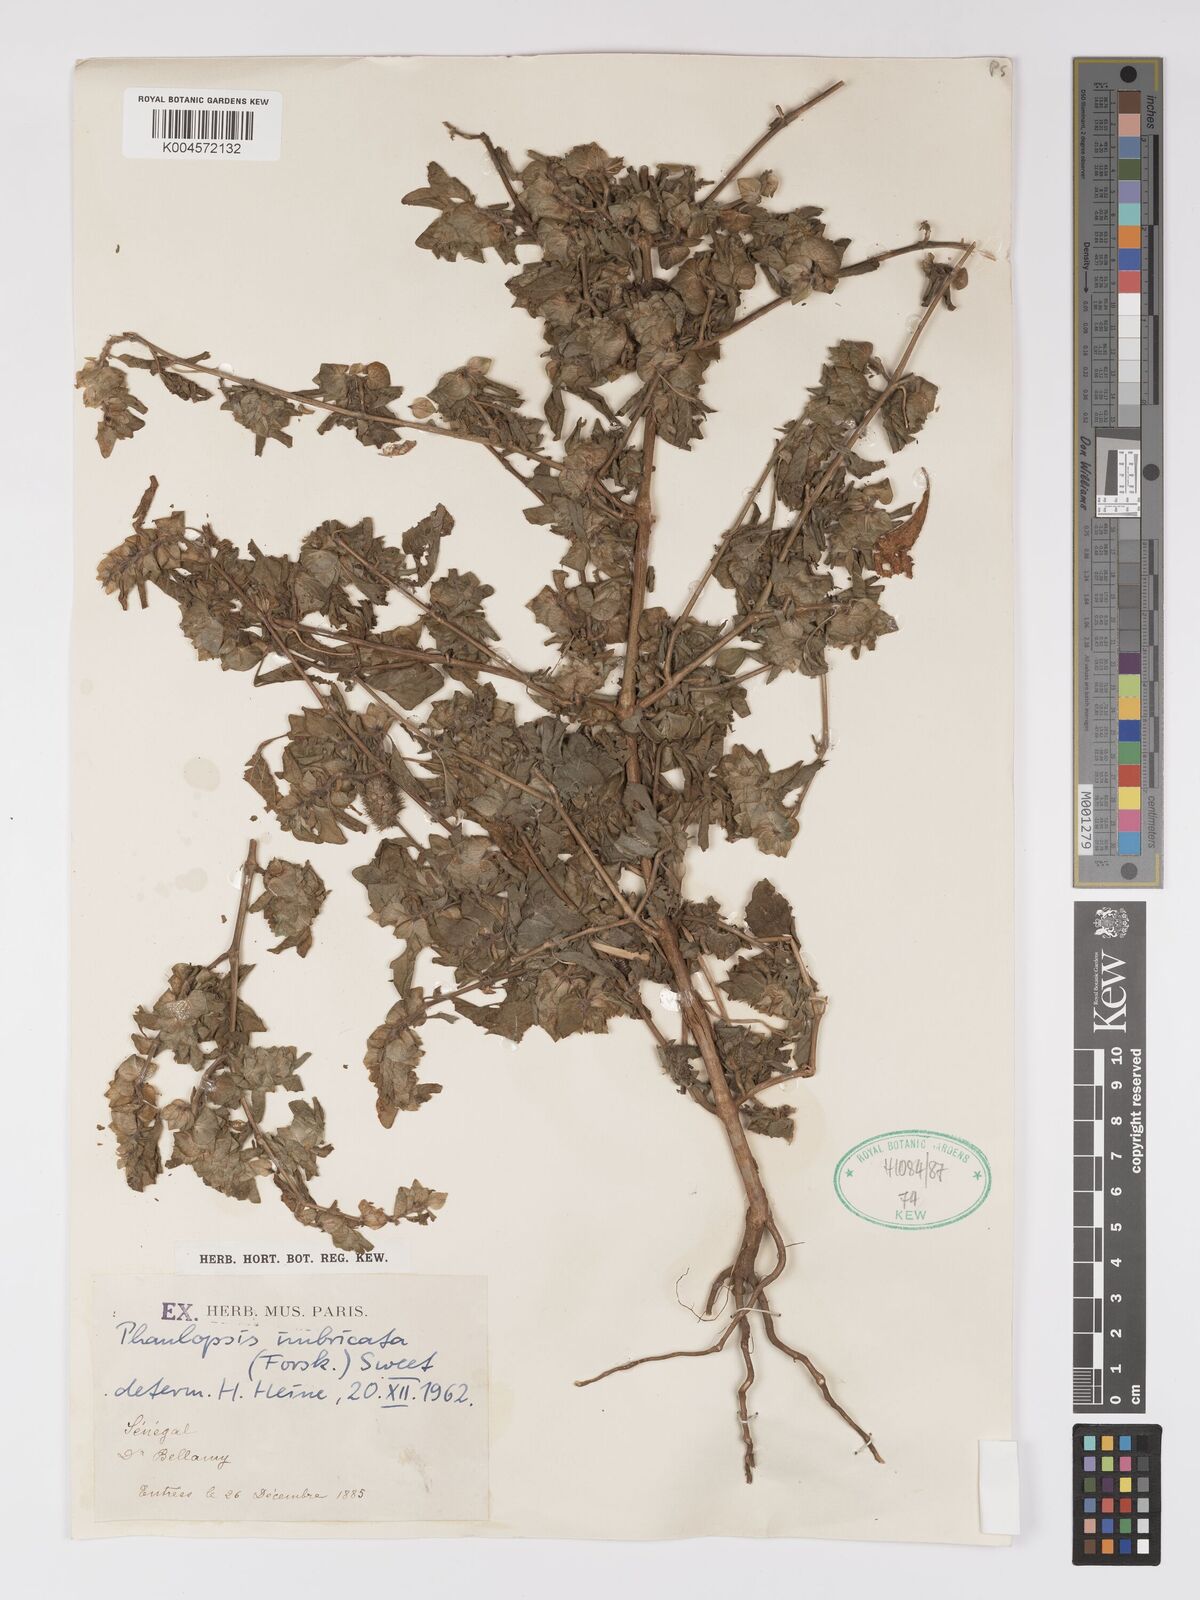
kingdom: Plantae
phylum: Tracheophyta
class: Magnoliopsida
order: Lamiales
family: Acanthaceae
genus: Phaulopsis
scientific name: Phaulopsis talbotii
